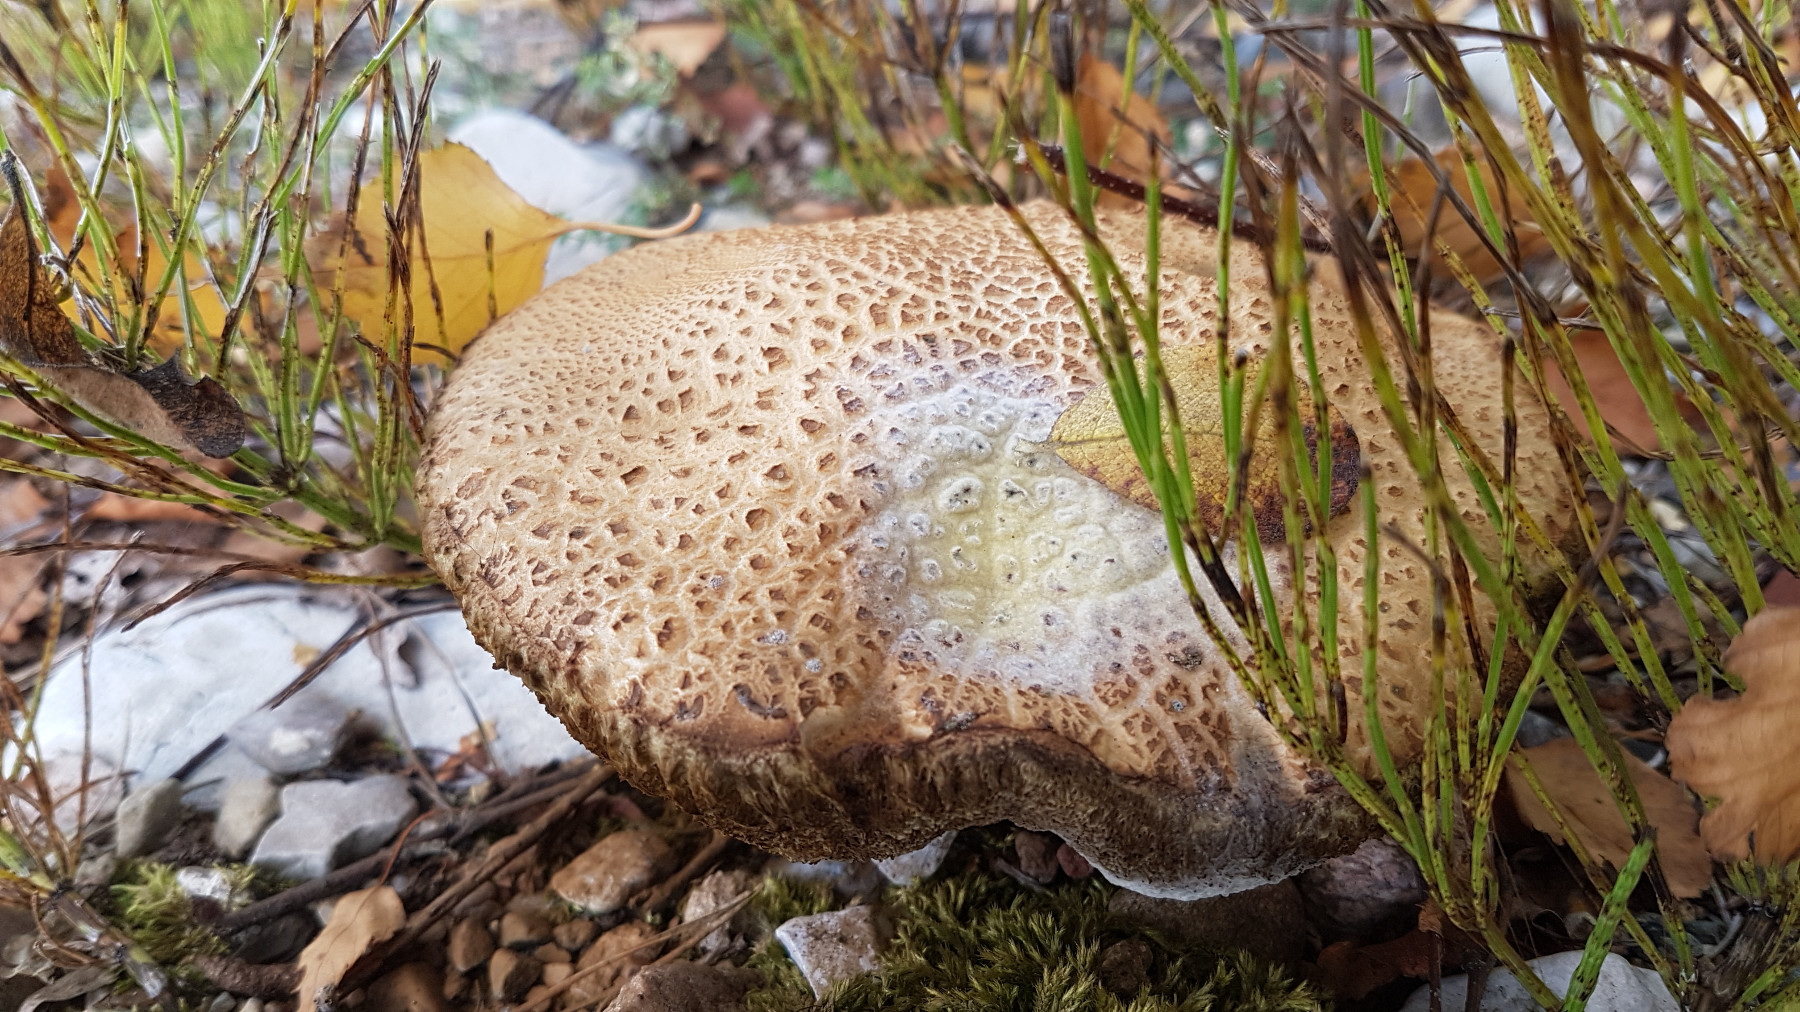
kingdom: Fungi
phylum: Basidiomycota
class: Agaricomycetes
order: Boletales
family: Boletaceae
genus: Leccinum
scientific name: Leccinum
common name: skælrørhat
